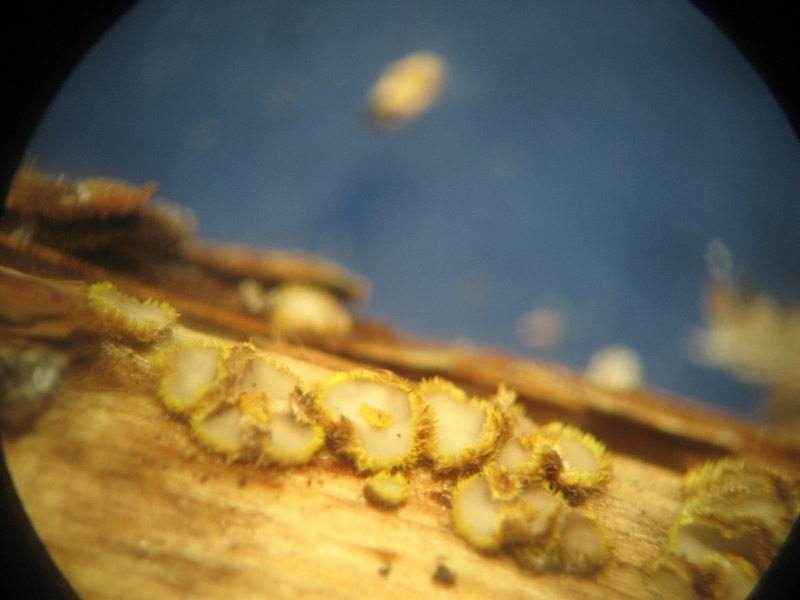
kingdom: Fungi
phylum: Ascomycota
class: Leotiomycetes
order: Helotiales
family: Lachnaceae
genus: Lachnum
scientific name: Lachnum mollissimum
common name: smuk frynseskive
